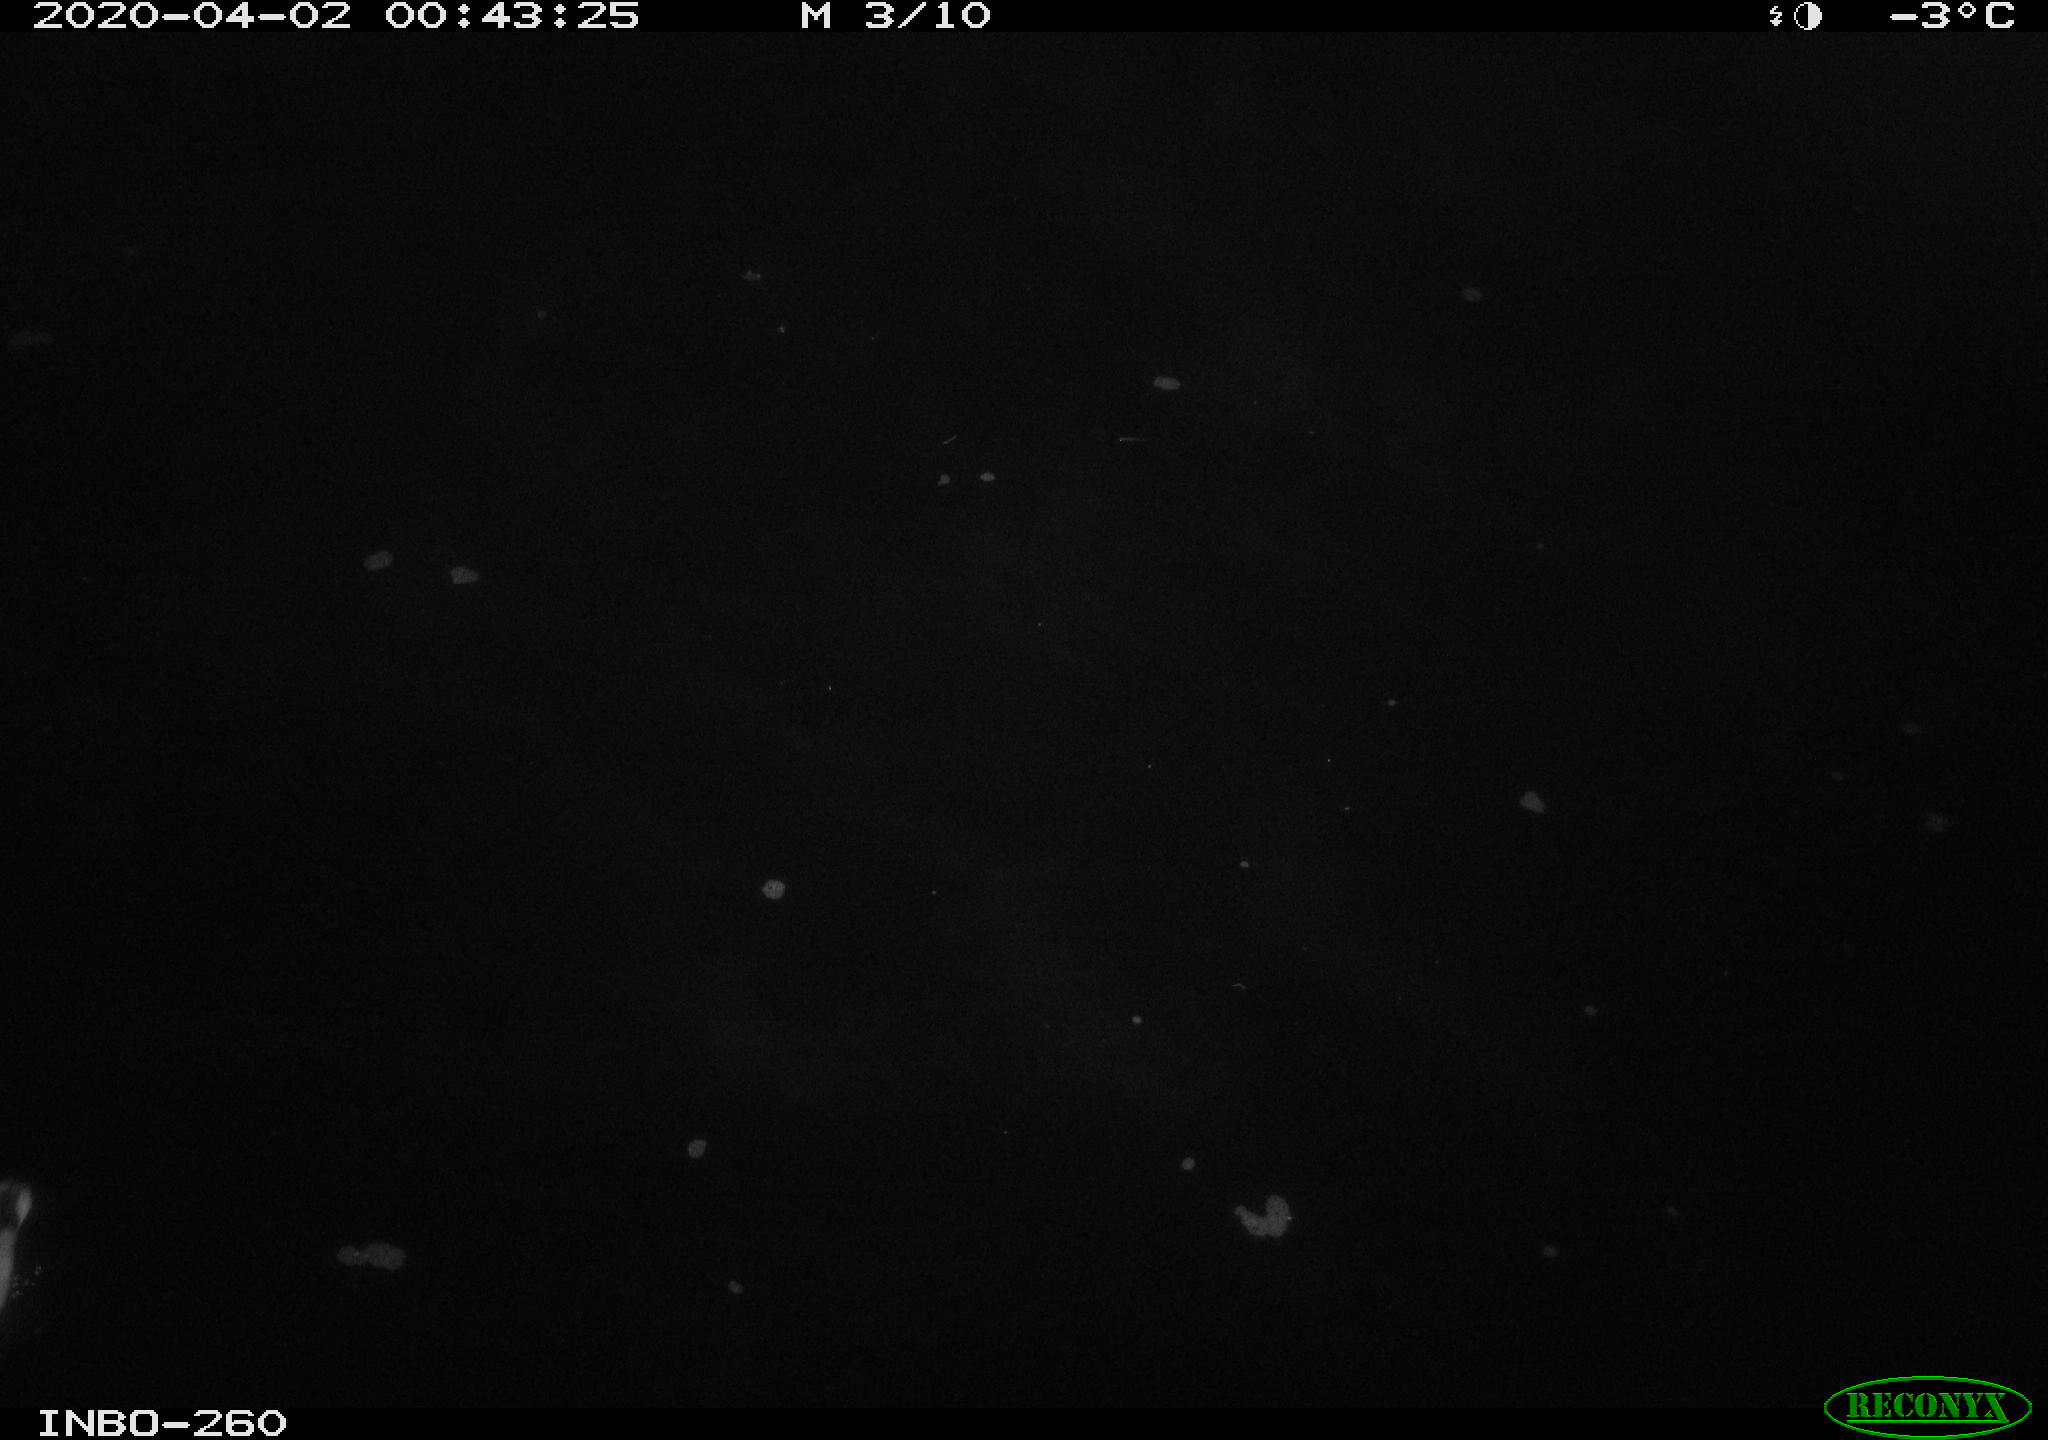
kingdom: Animalia
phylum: Chordata
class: Aves
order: Anseriformes
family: Anatidae
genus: Anas
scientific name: Anas platyrhynchos
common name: Mallard
